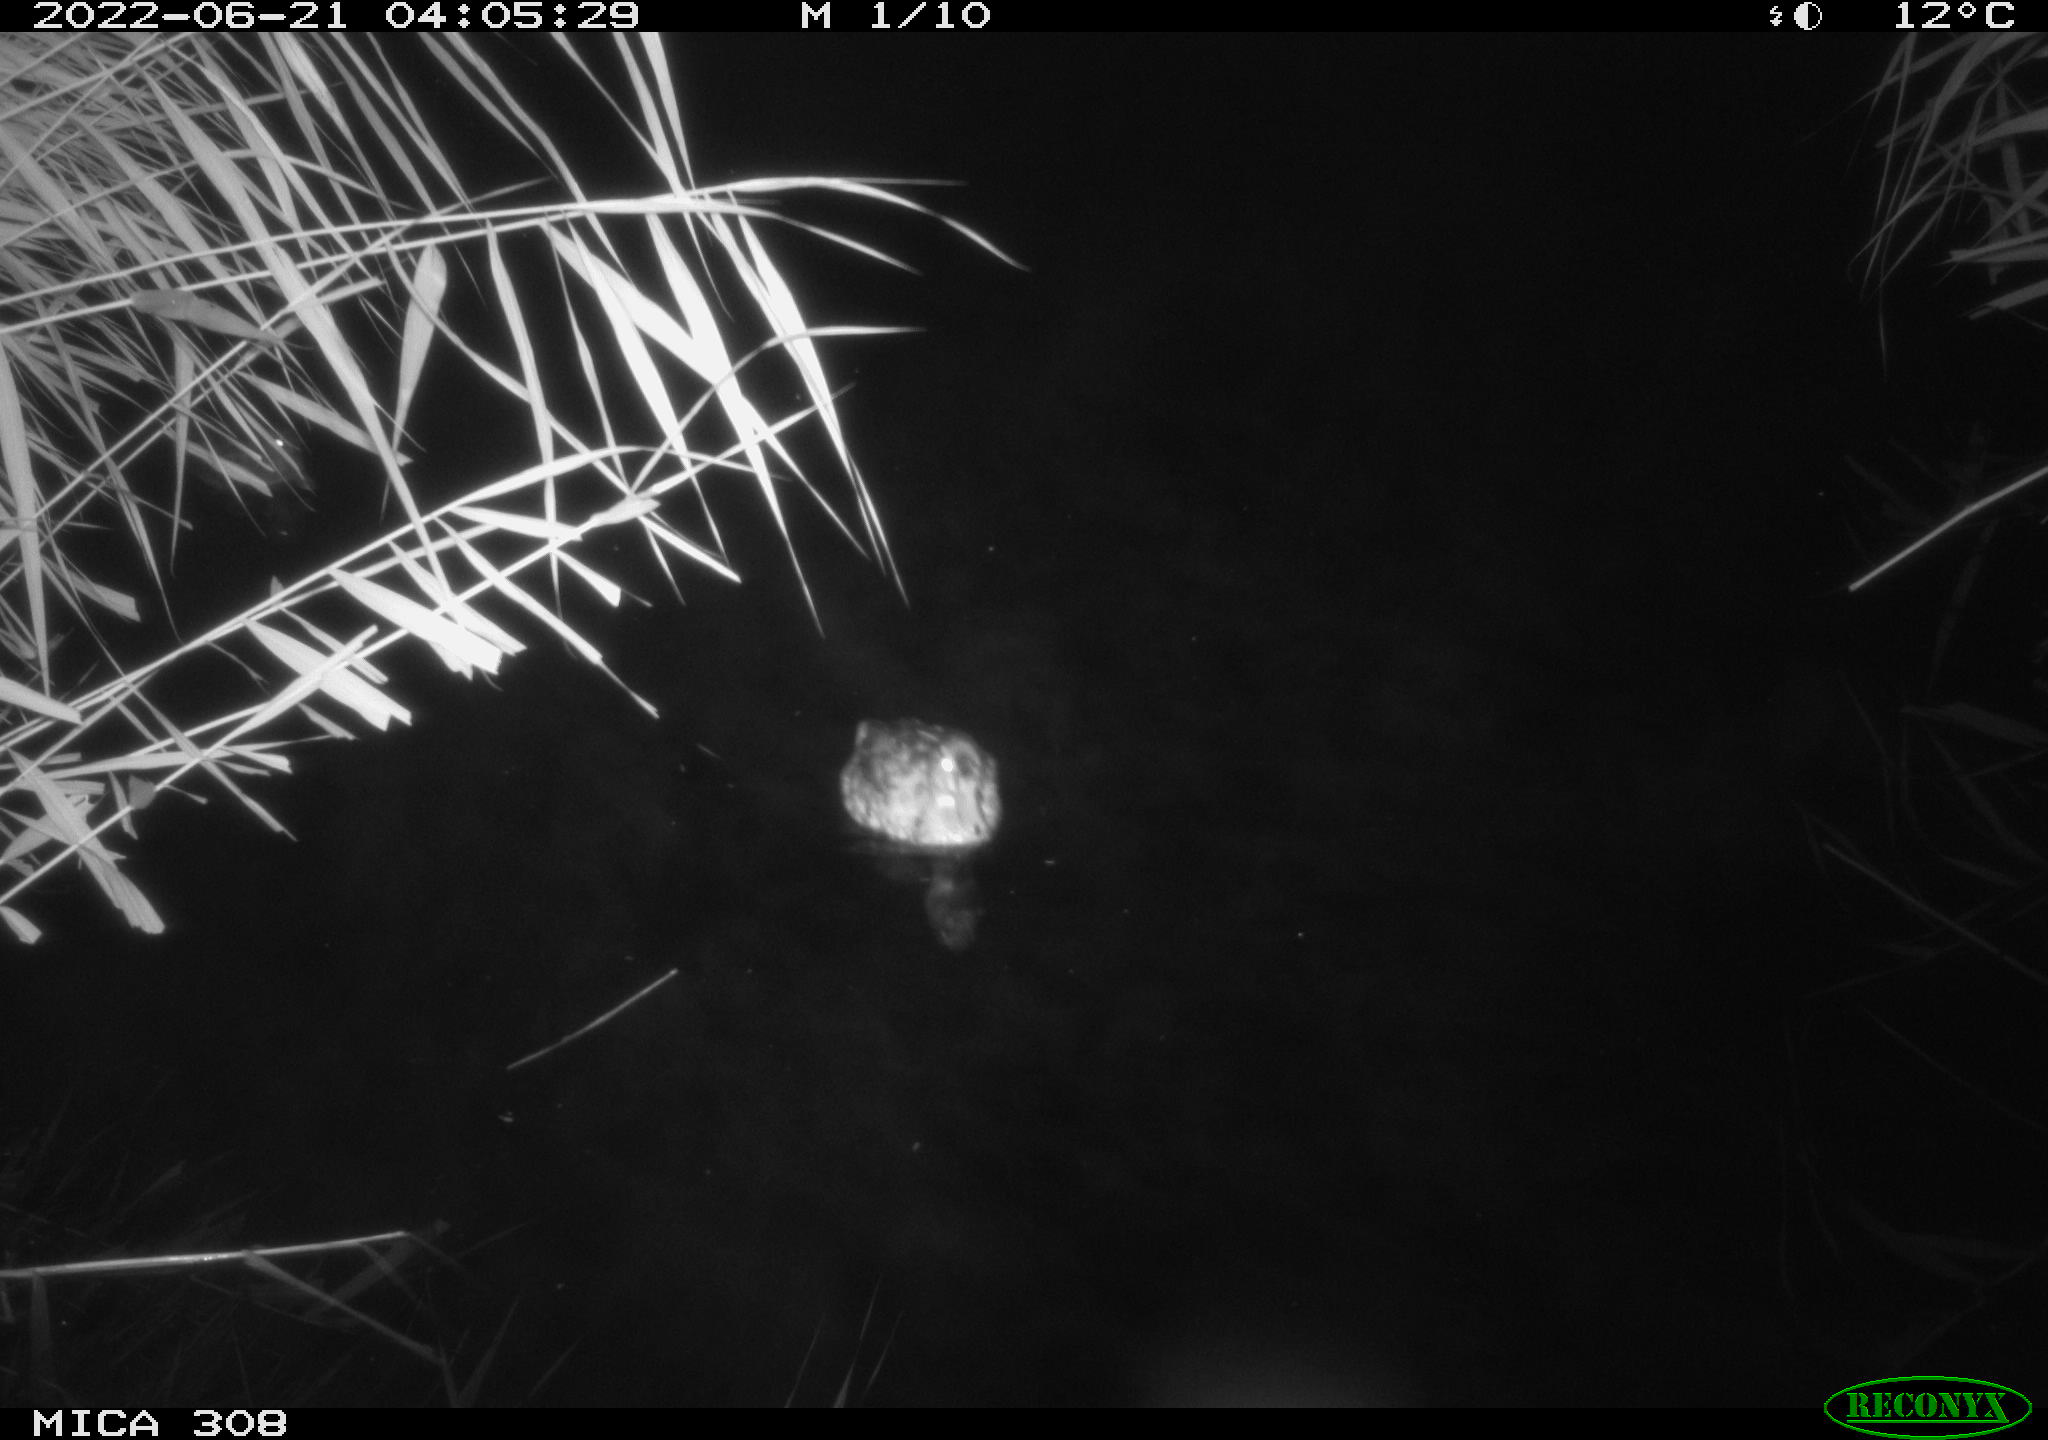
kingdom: Animalia
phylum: Chordata
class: Aves
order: Anseriformes
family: Anatidae
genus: Anas
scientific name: Anas platyrhynchos
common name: Mallard
